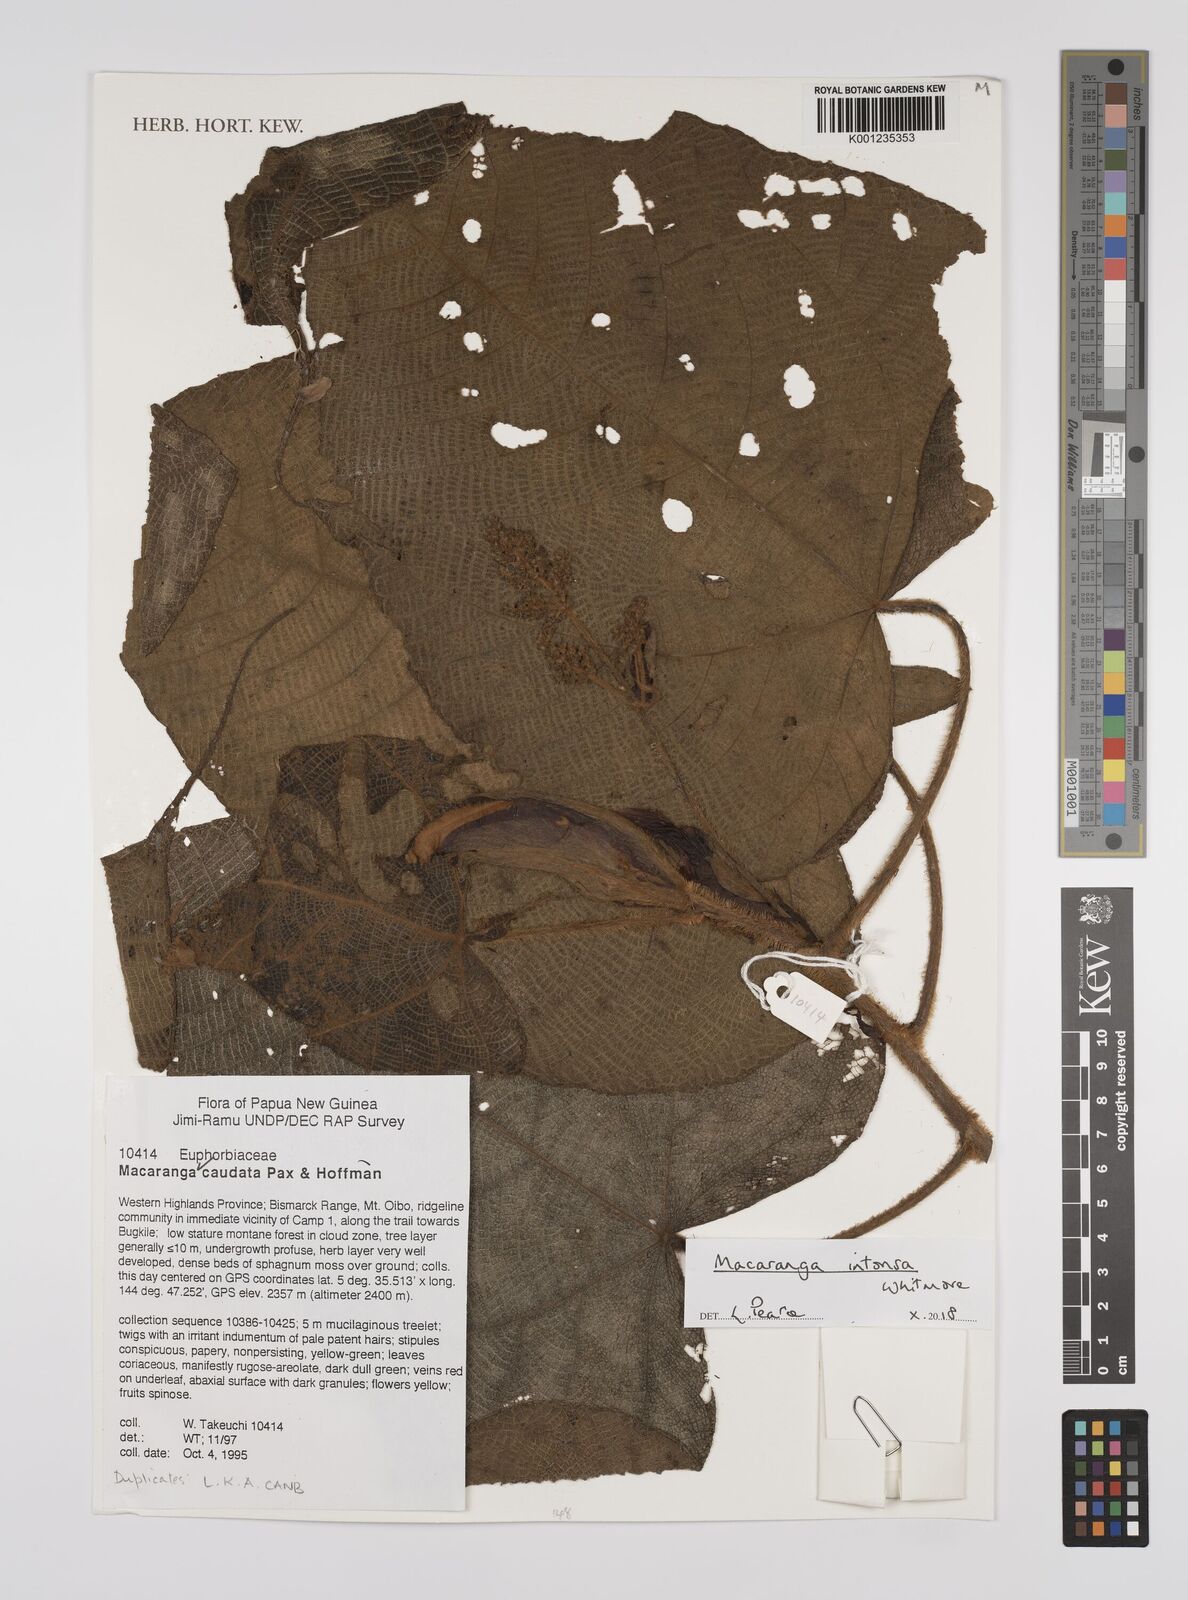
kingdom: Plantae
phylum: Tracheophyta
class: Magnoliopsida
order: Malpighiales
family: Euphorbiaceae
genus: Macaranga
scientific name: Macaranga intonsa
